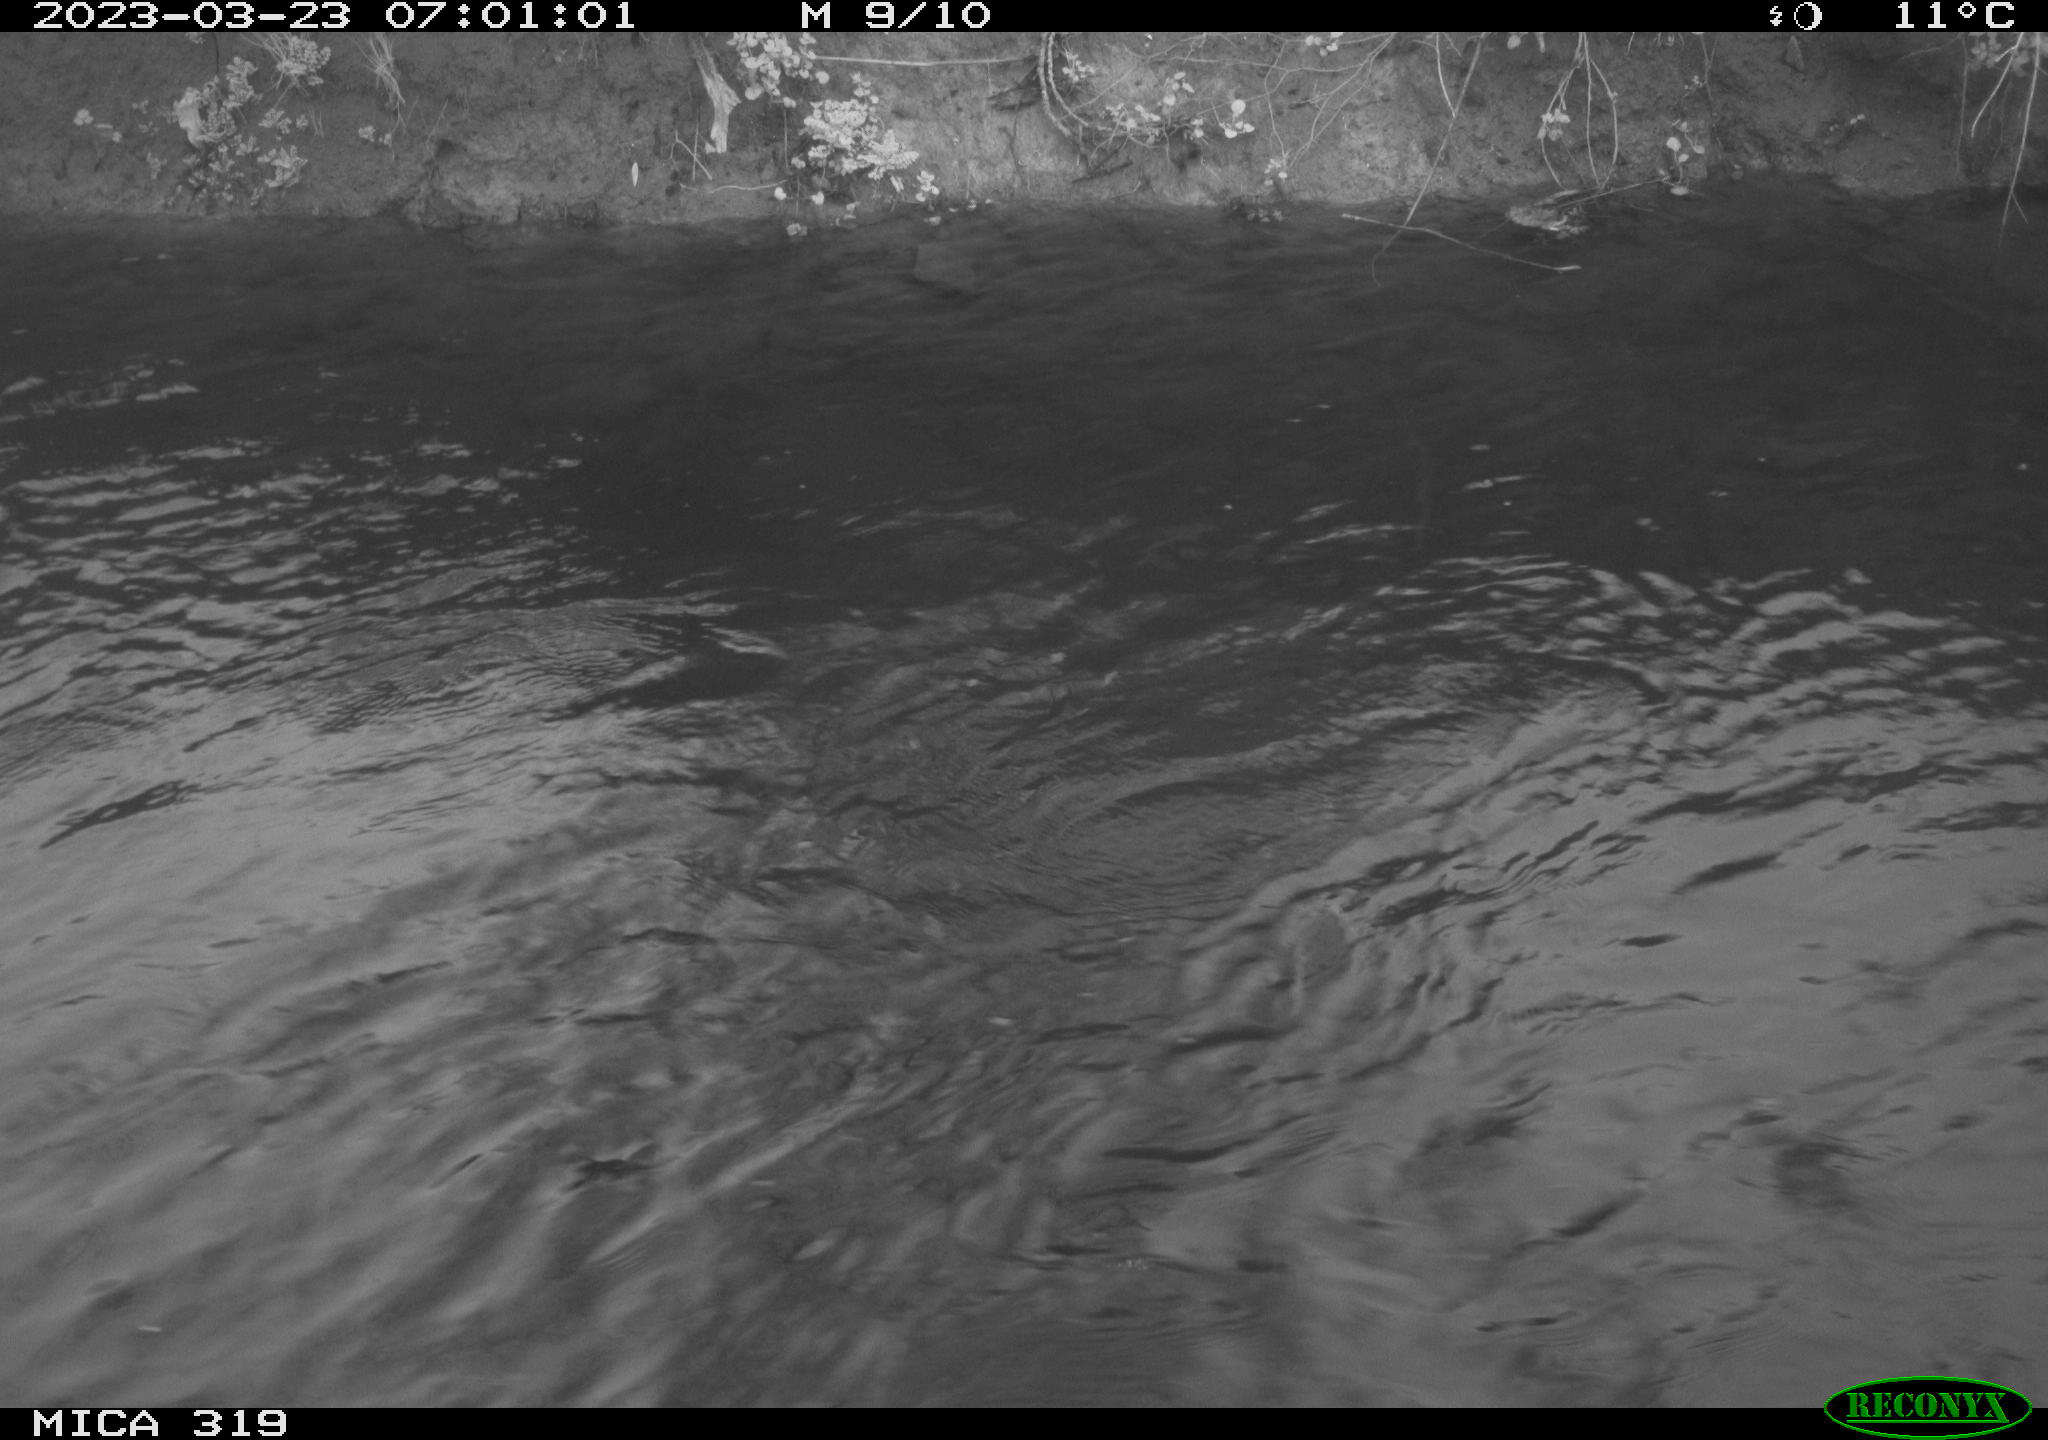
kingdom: Animalia
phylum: Chordata
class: Aves
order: Anseriformes
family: Anatidae
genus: Anas
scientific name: Anas
